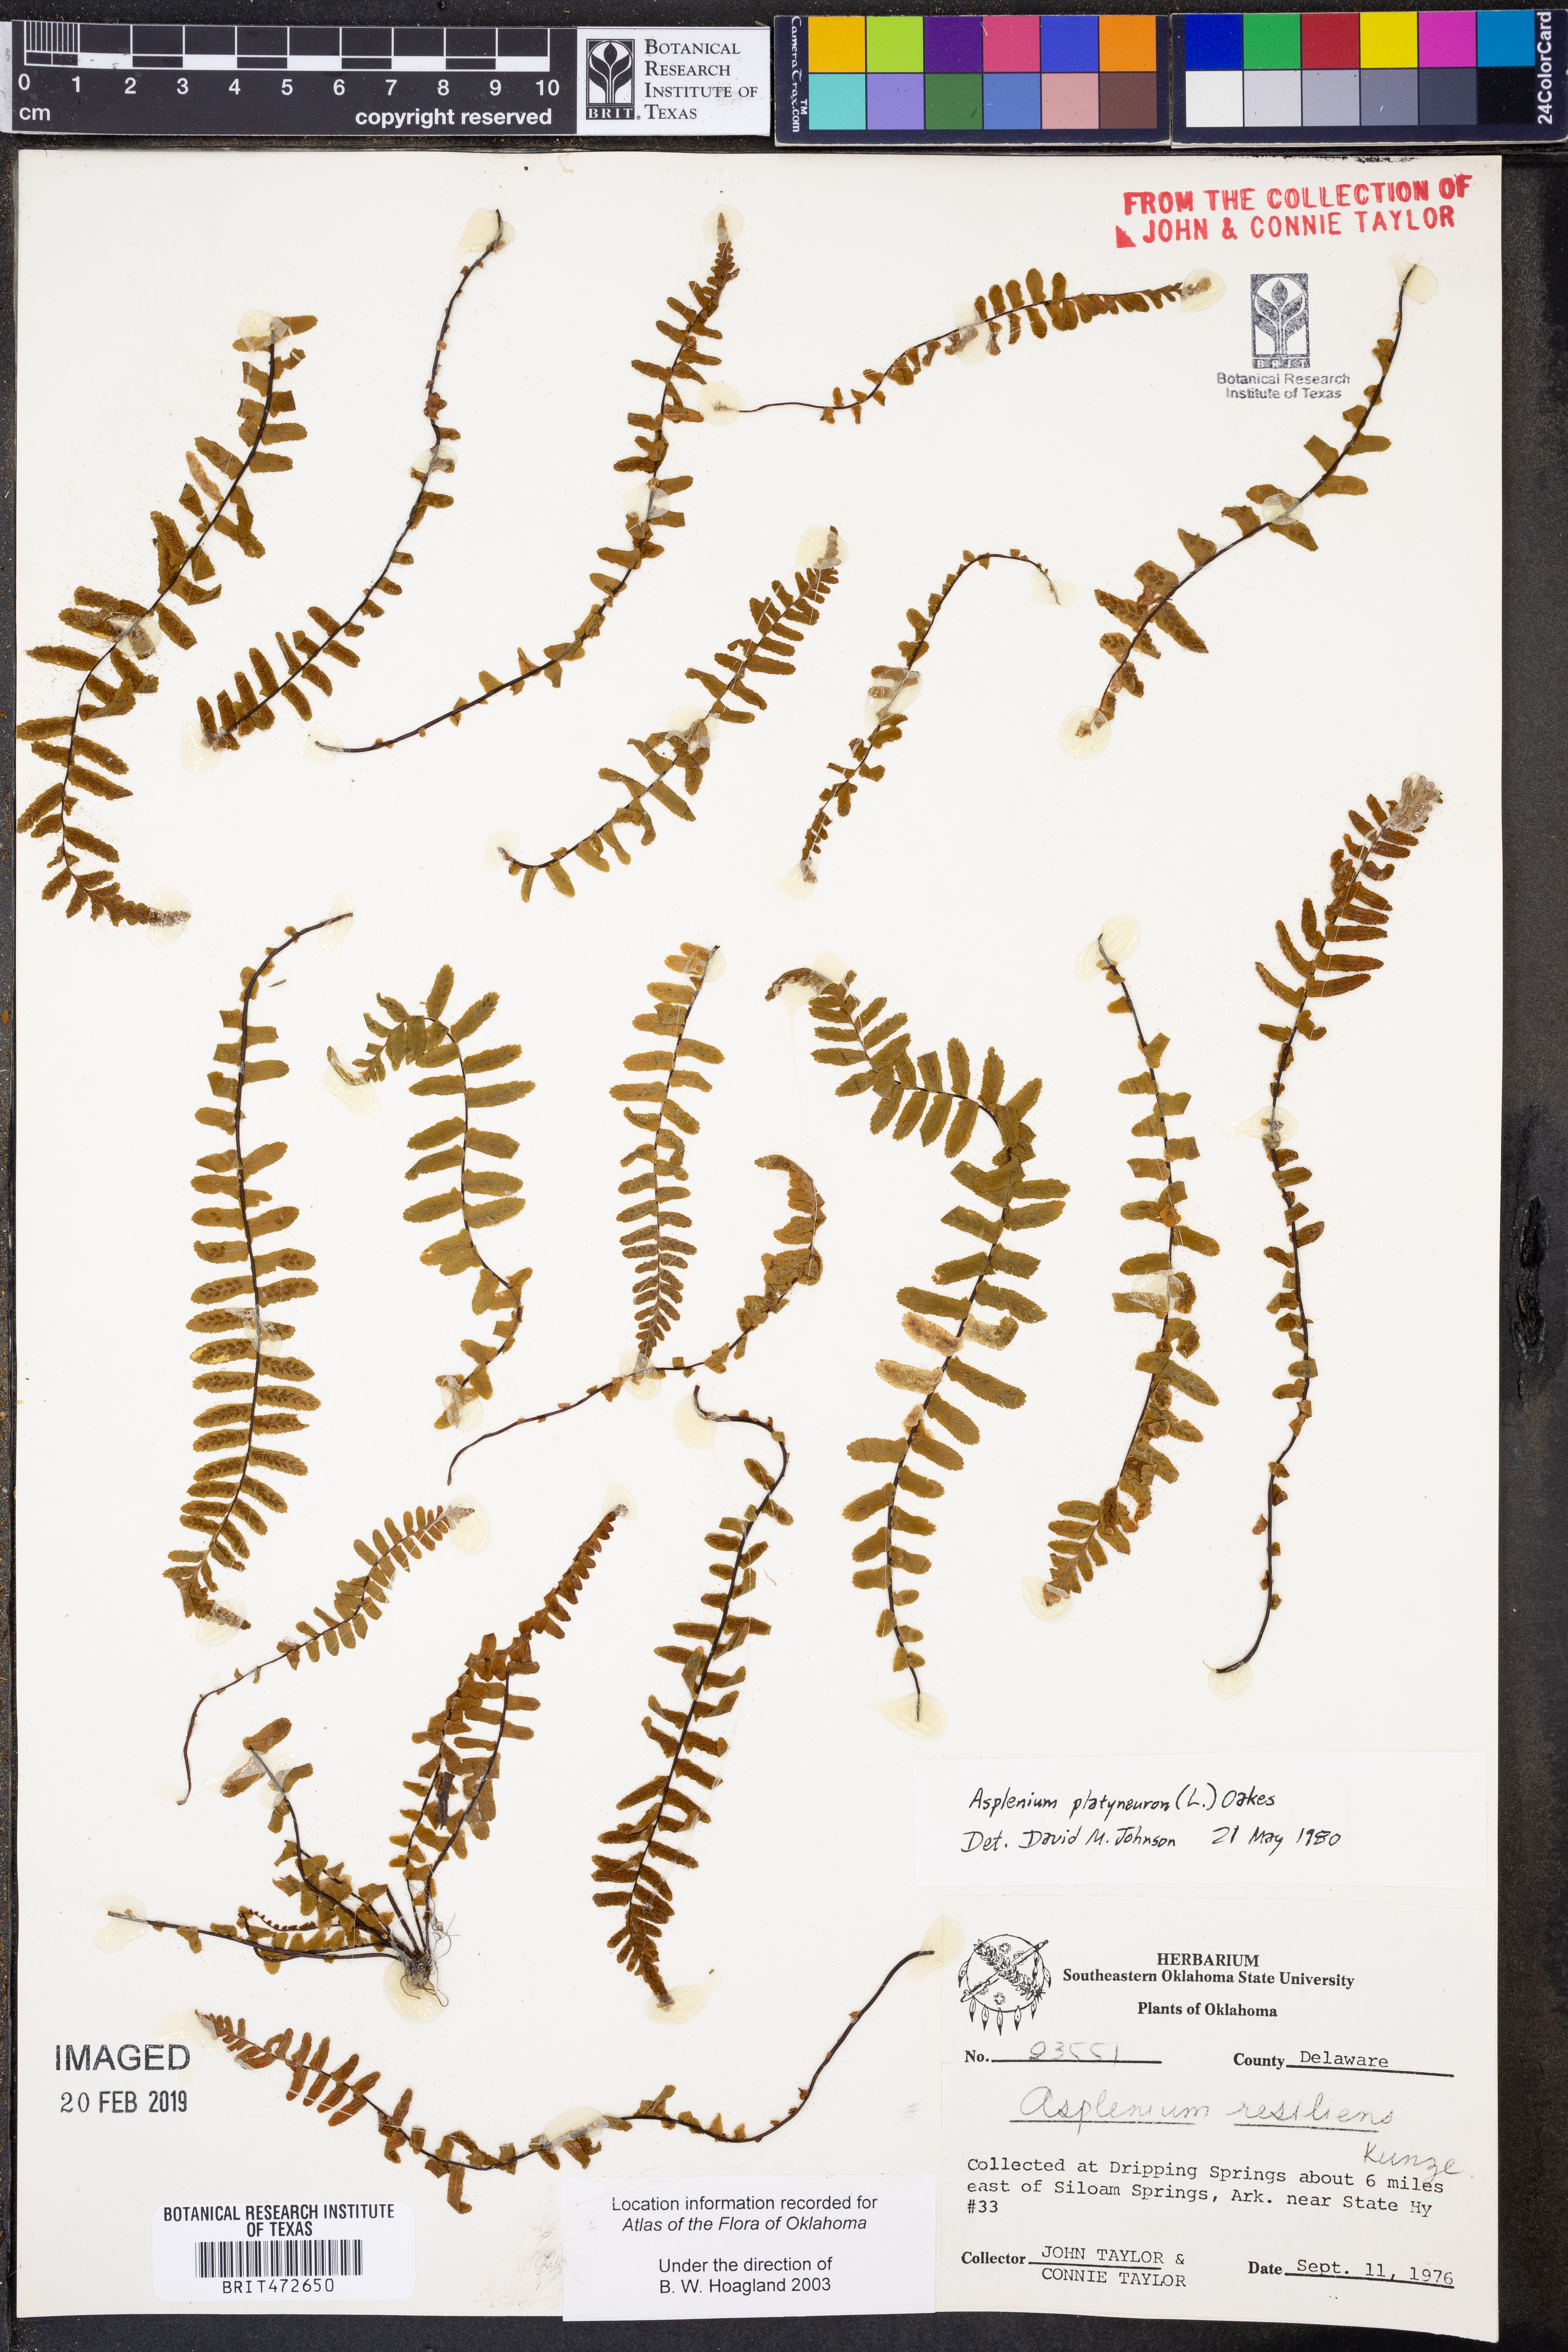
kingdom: Plantae
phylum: Tracheophyta
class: Polypodiopsida
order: Polypodiales
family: Aspleniaceae
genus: Asplenium
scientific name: Asplenium platyneuron
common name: Ebony spleenwort
